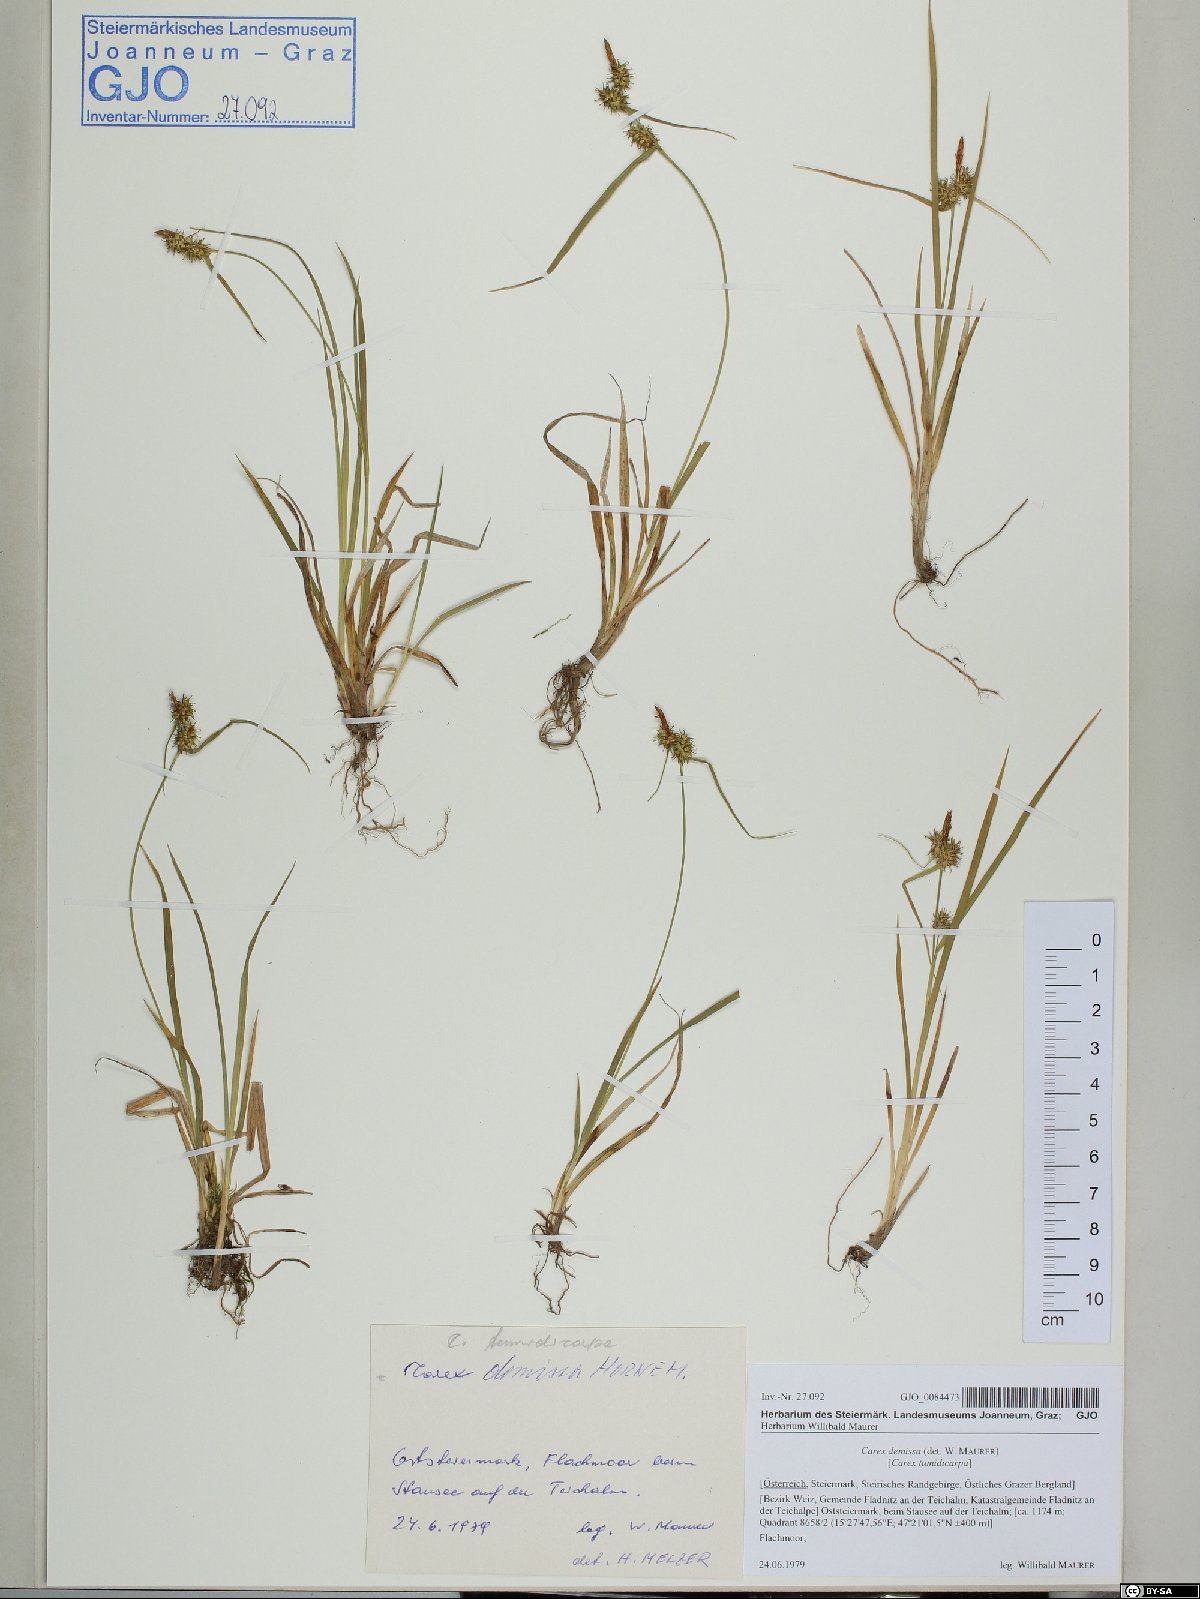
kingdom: Plantae
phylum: Tracheophyta
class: Liliopsida
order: Poales
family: Cyperaceae
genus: Carex
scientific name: Carex demissa
